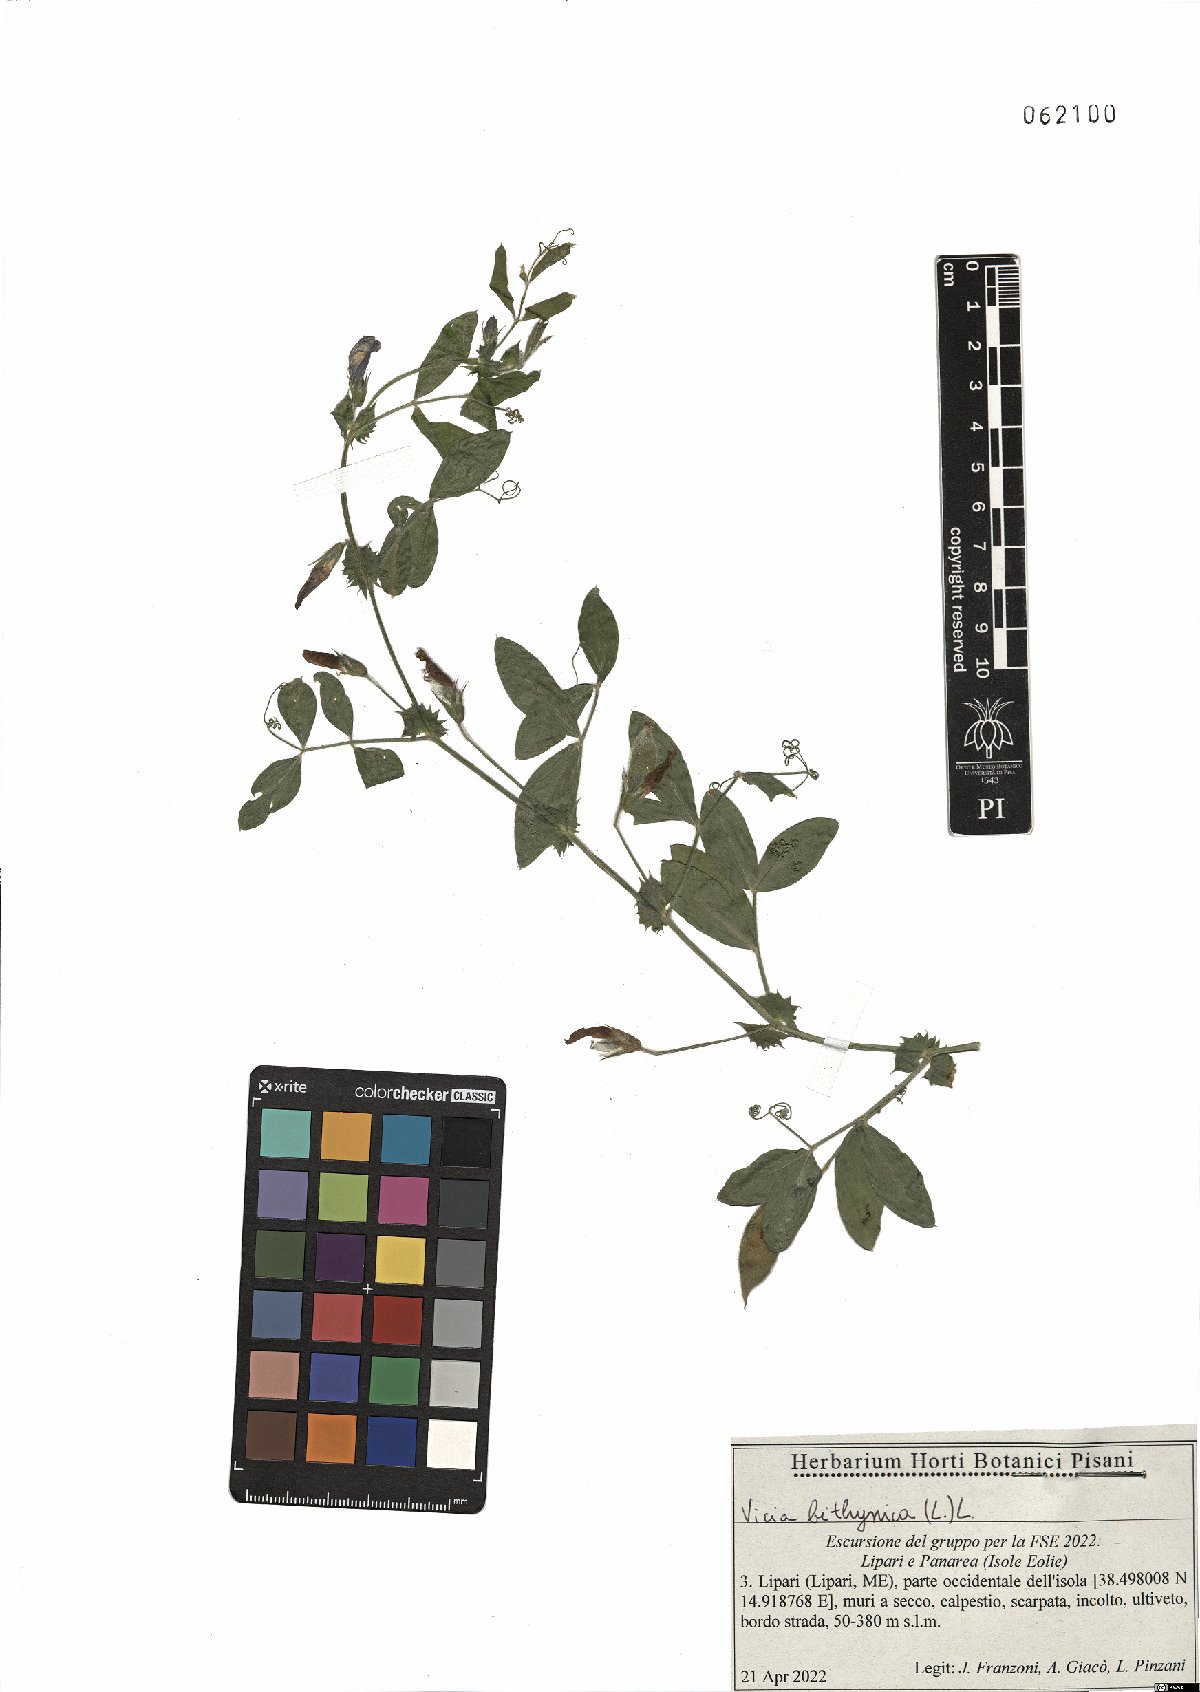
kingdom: Plantae
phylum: Tracheophyta
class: Magnoliopsida
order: Fabales
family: Fabaceae
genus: Vicia
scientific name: Vicia bithynica
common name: Bithynian vetch
